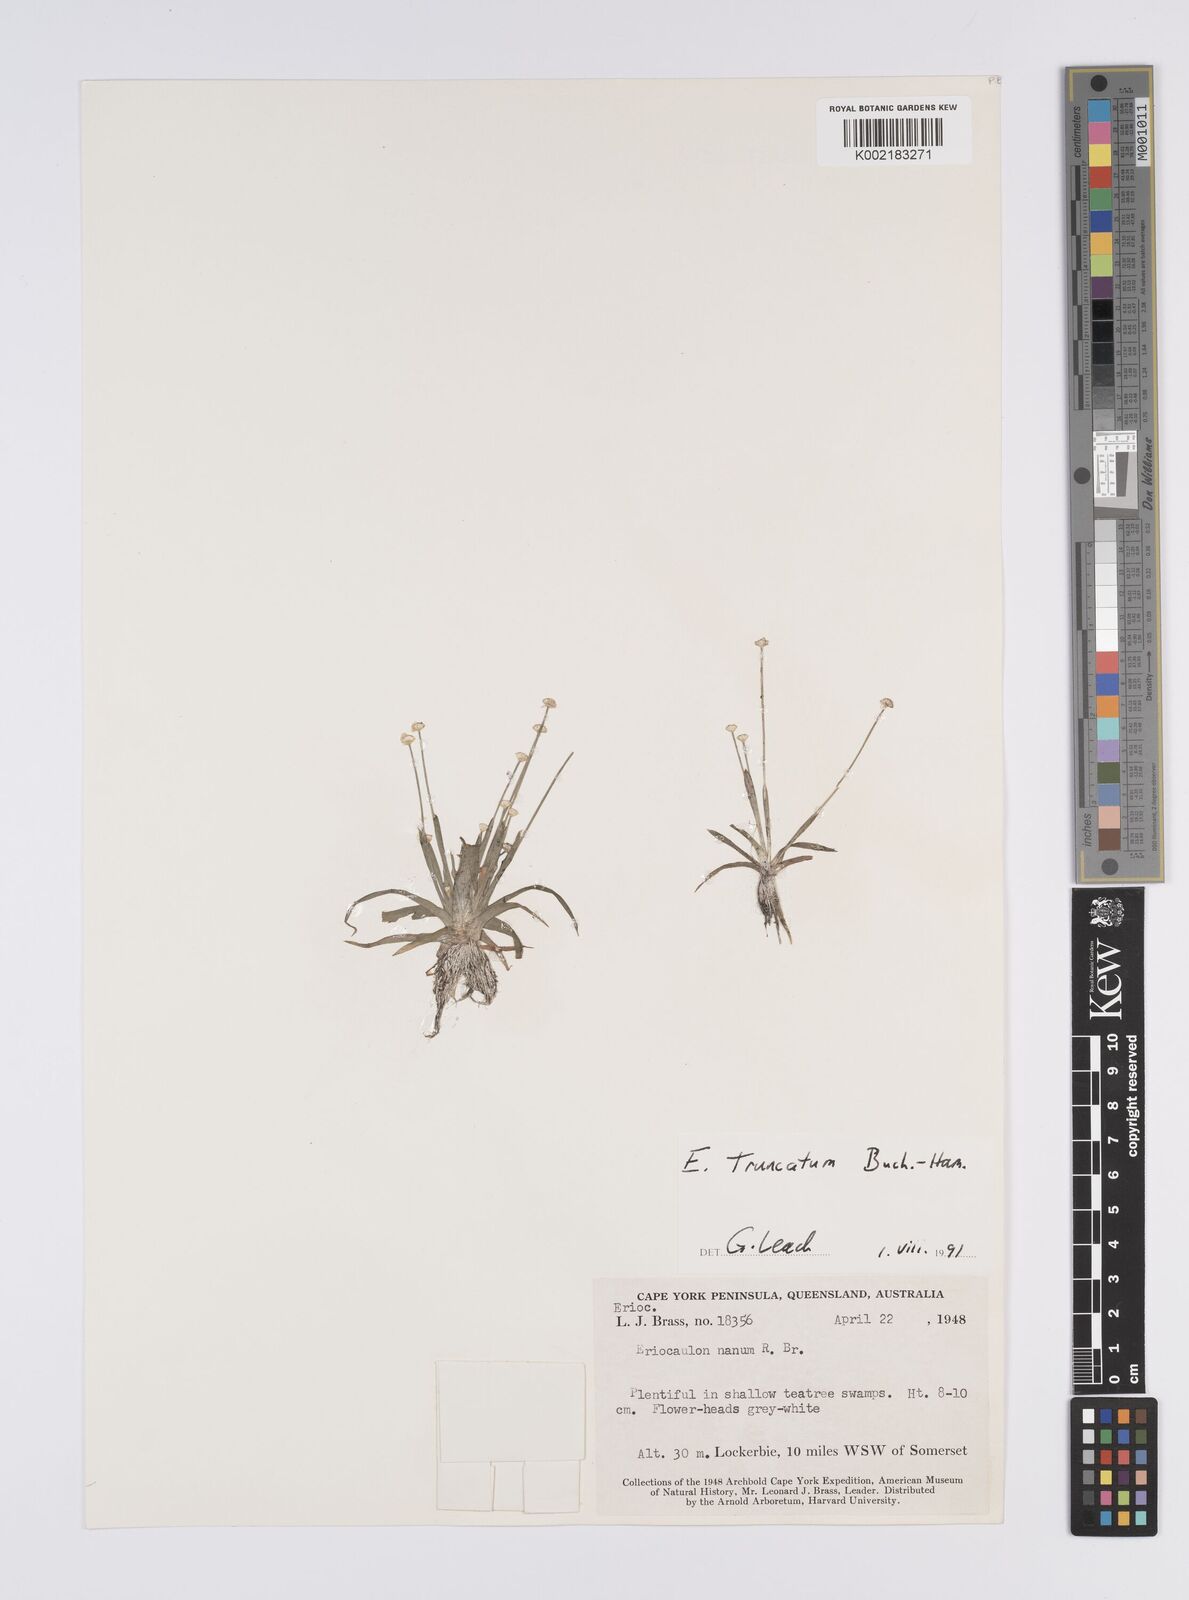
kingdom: Plantae
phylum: Tracheophyta
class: Liliopsida
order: Poales
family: Eriocaulaceae
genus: Eriocaulon
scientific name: Eriocaulon truncatum
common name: Short pipe-wort
